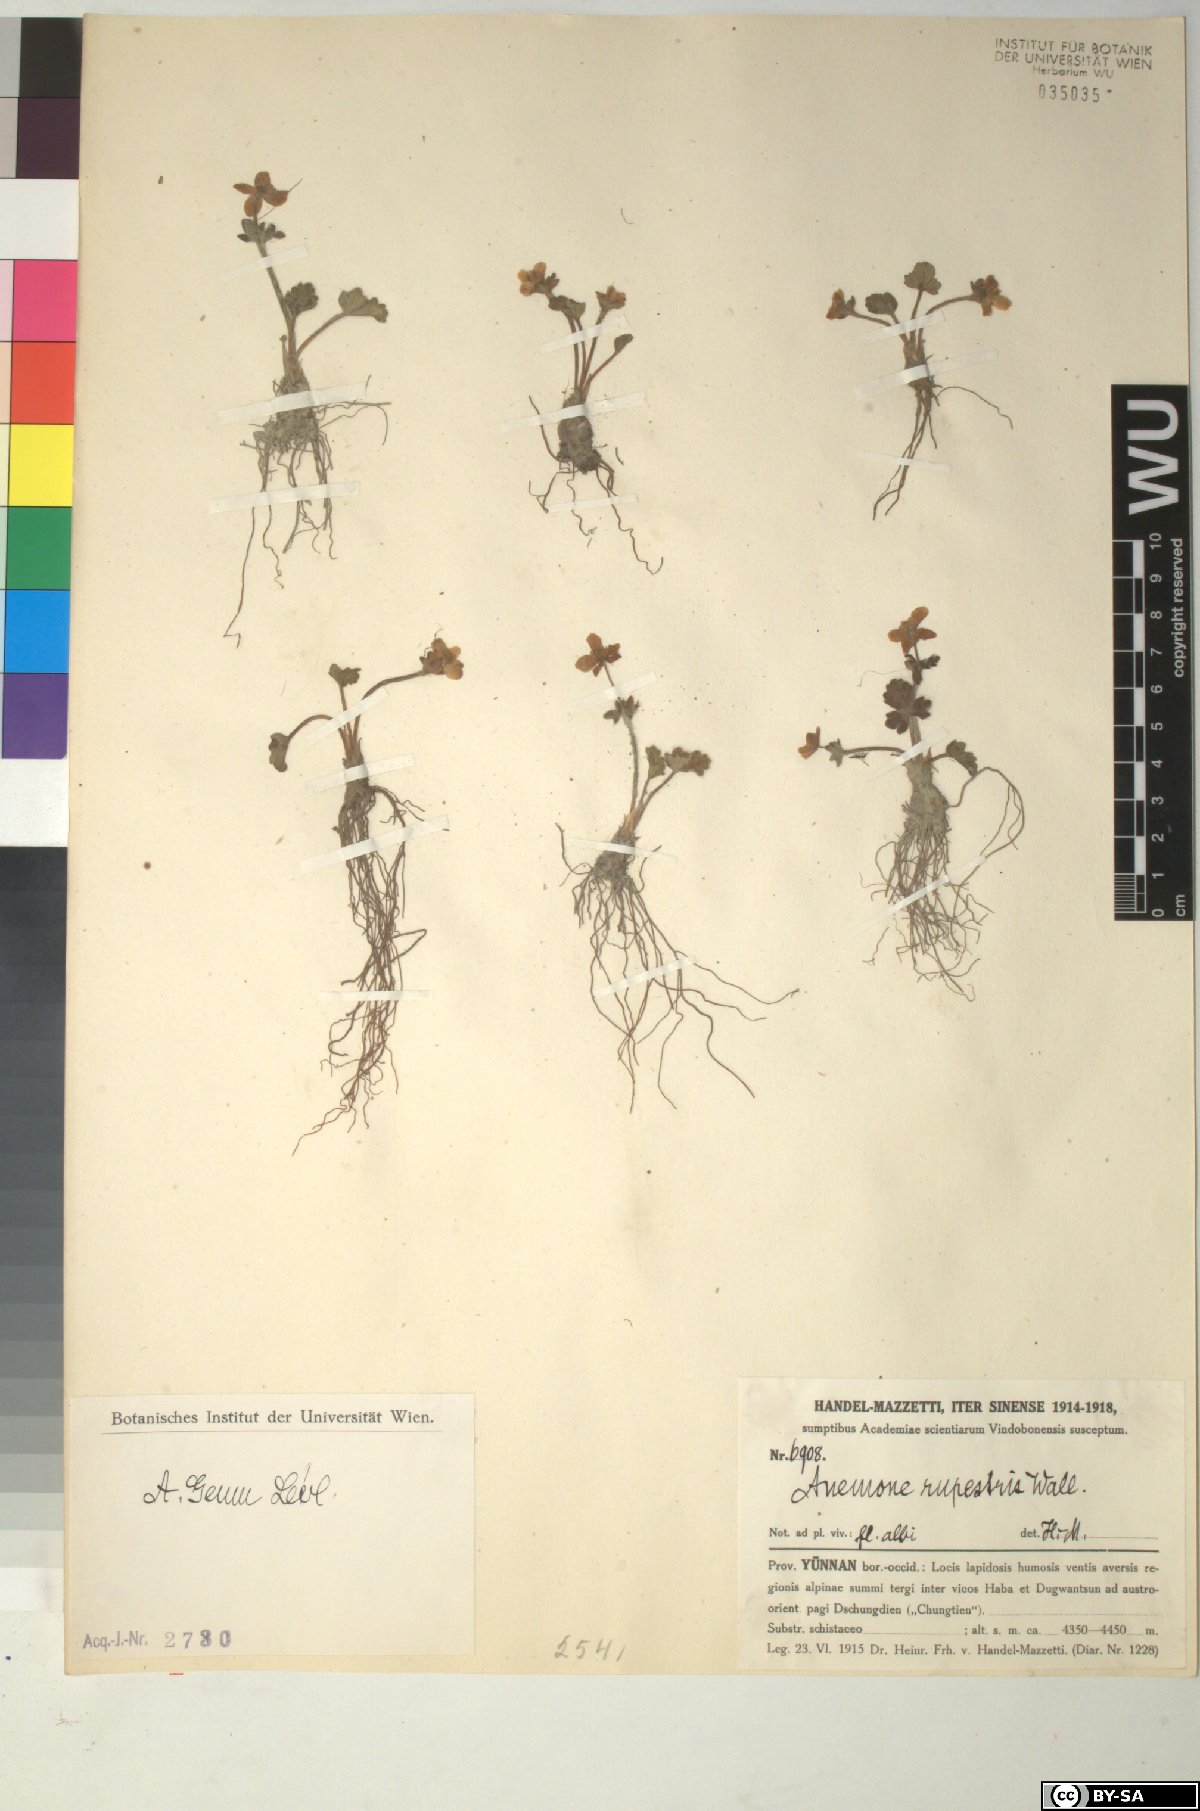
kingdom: Plantae
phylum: Tracheophyta
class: Magnoliopsida
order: Ranunculales
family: Ranunculaceae
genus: Anemonastrum
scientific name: Anemonastrum geum
